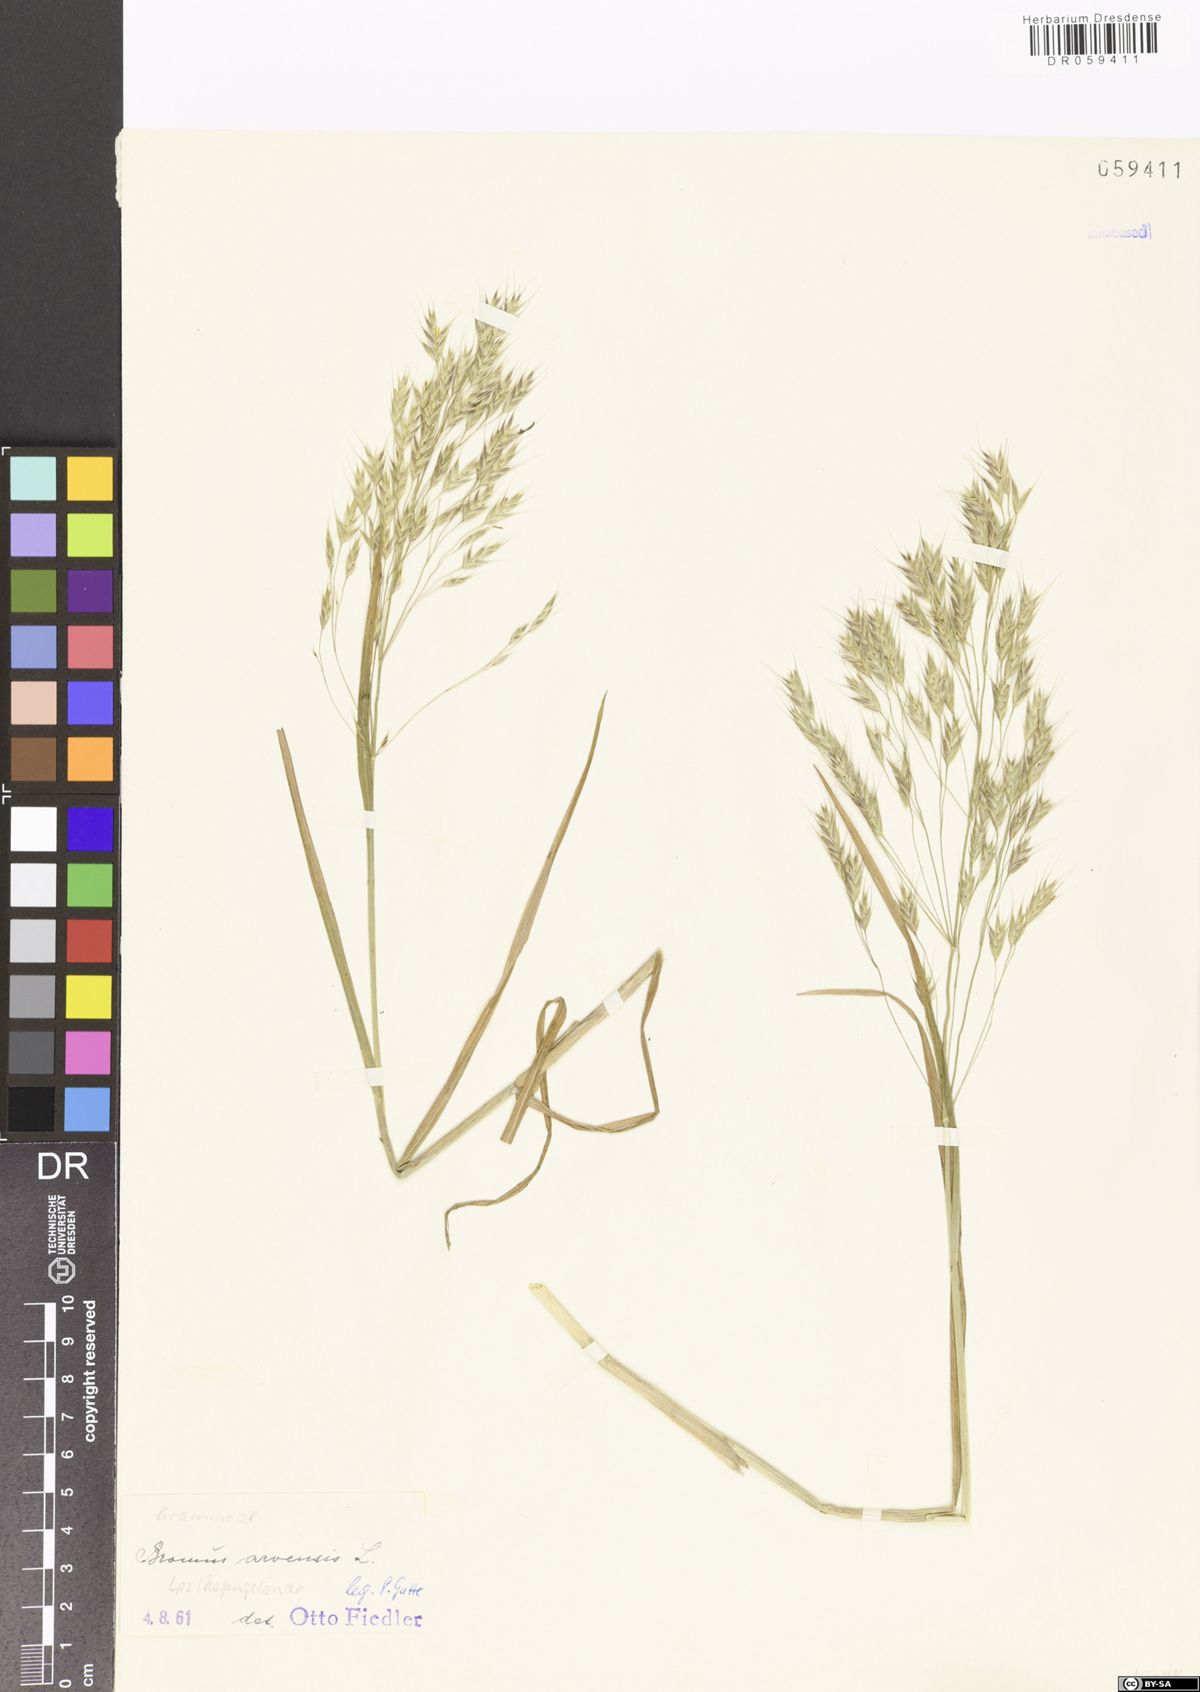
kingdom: Plantae
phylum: Tracheophyta
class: Liliopsida
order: Poales
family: Poaceae
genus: Bromus
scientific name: Bromus arvensis
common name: Field brome
